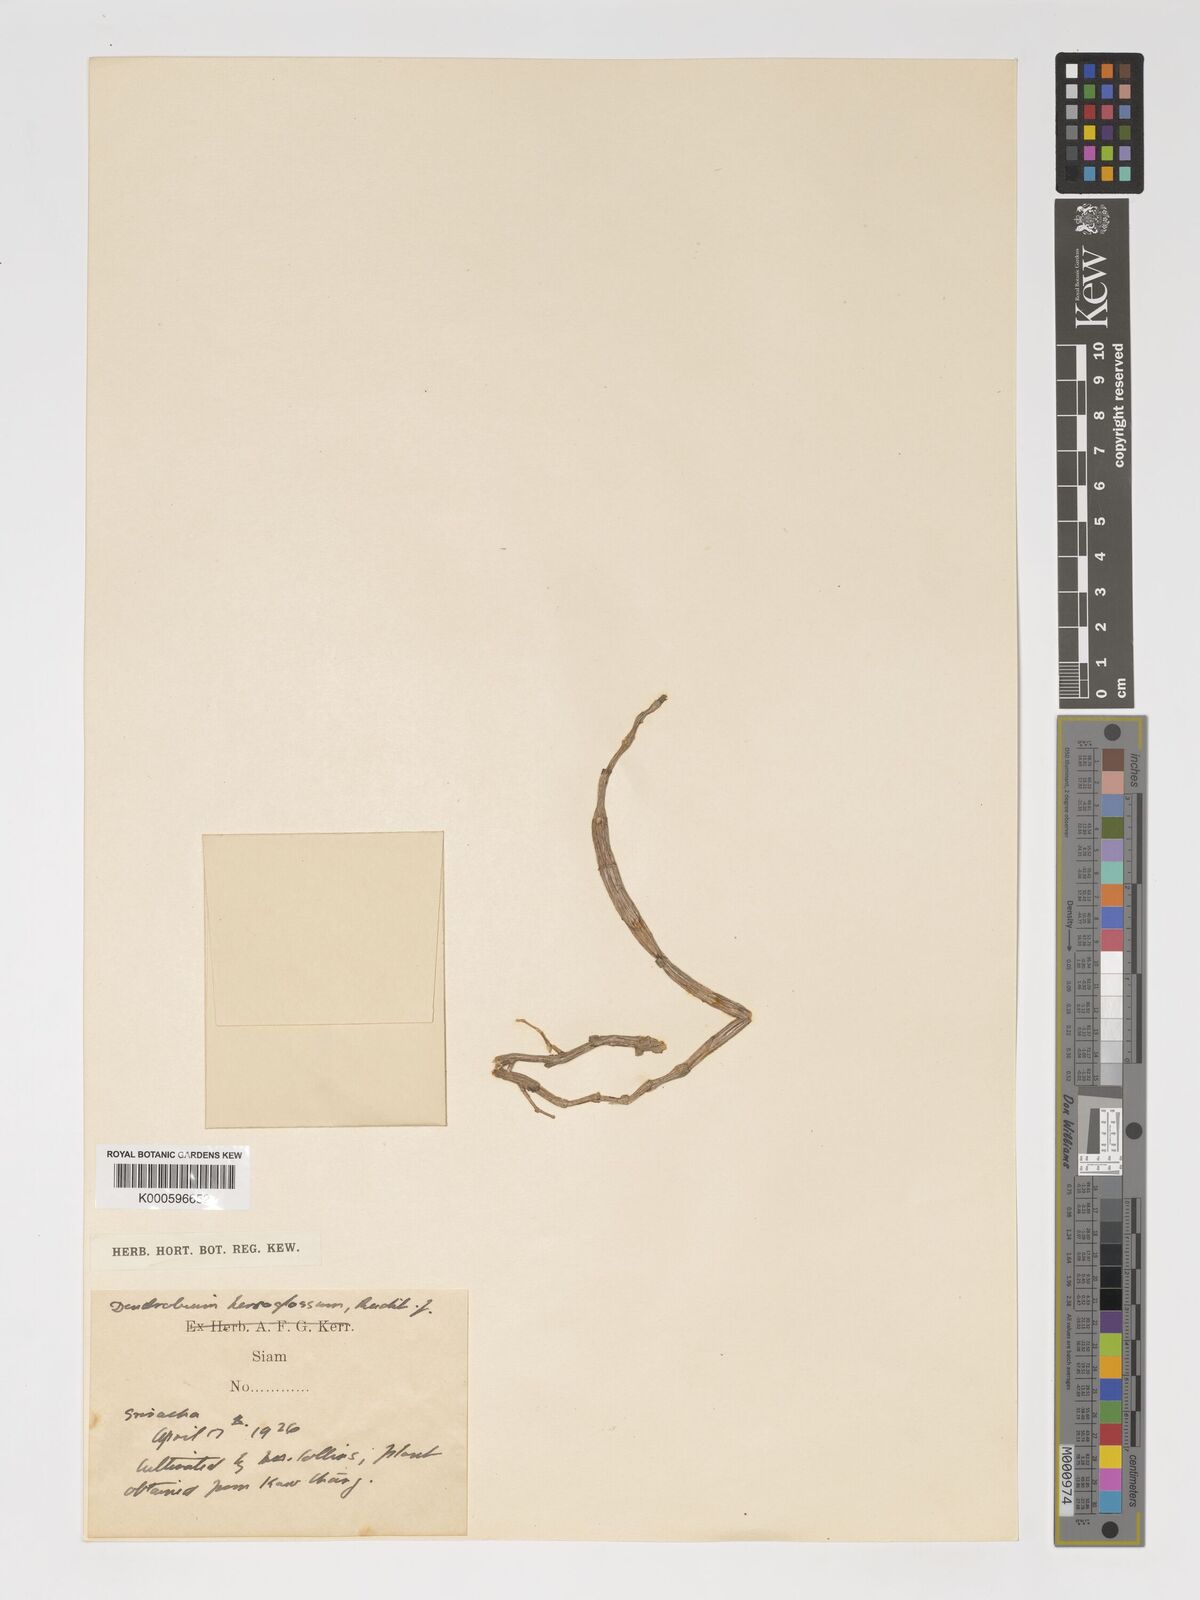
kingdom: Plantae
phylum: Tracheophyta
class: Liliopsida
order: Asparagales
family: Orchidaceae
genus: Dendrobium
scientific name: Dendrobium hercoglossum
